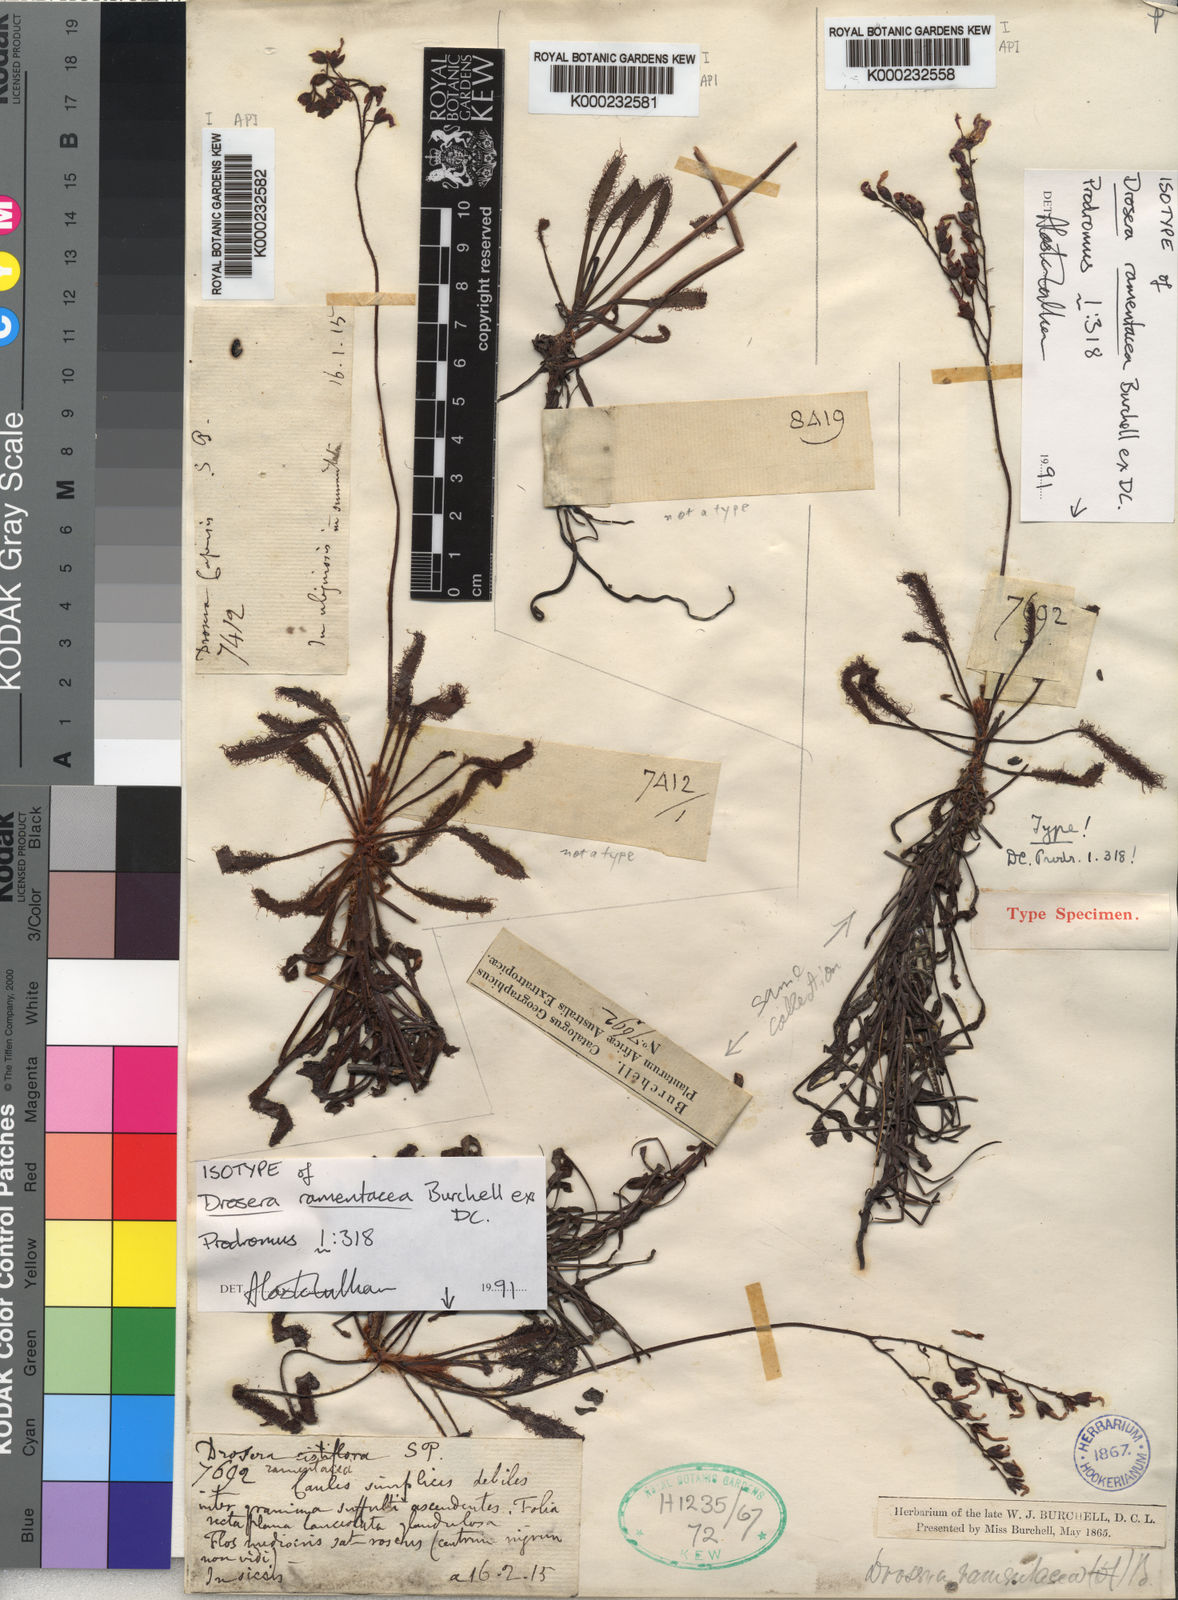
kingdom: Plantae
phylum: Tracheophyta
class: Magnoliopsida
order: Caryophyllales
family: Droseraceae
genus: Drosera
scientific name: Drosera ramentacea
